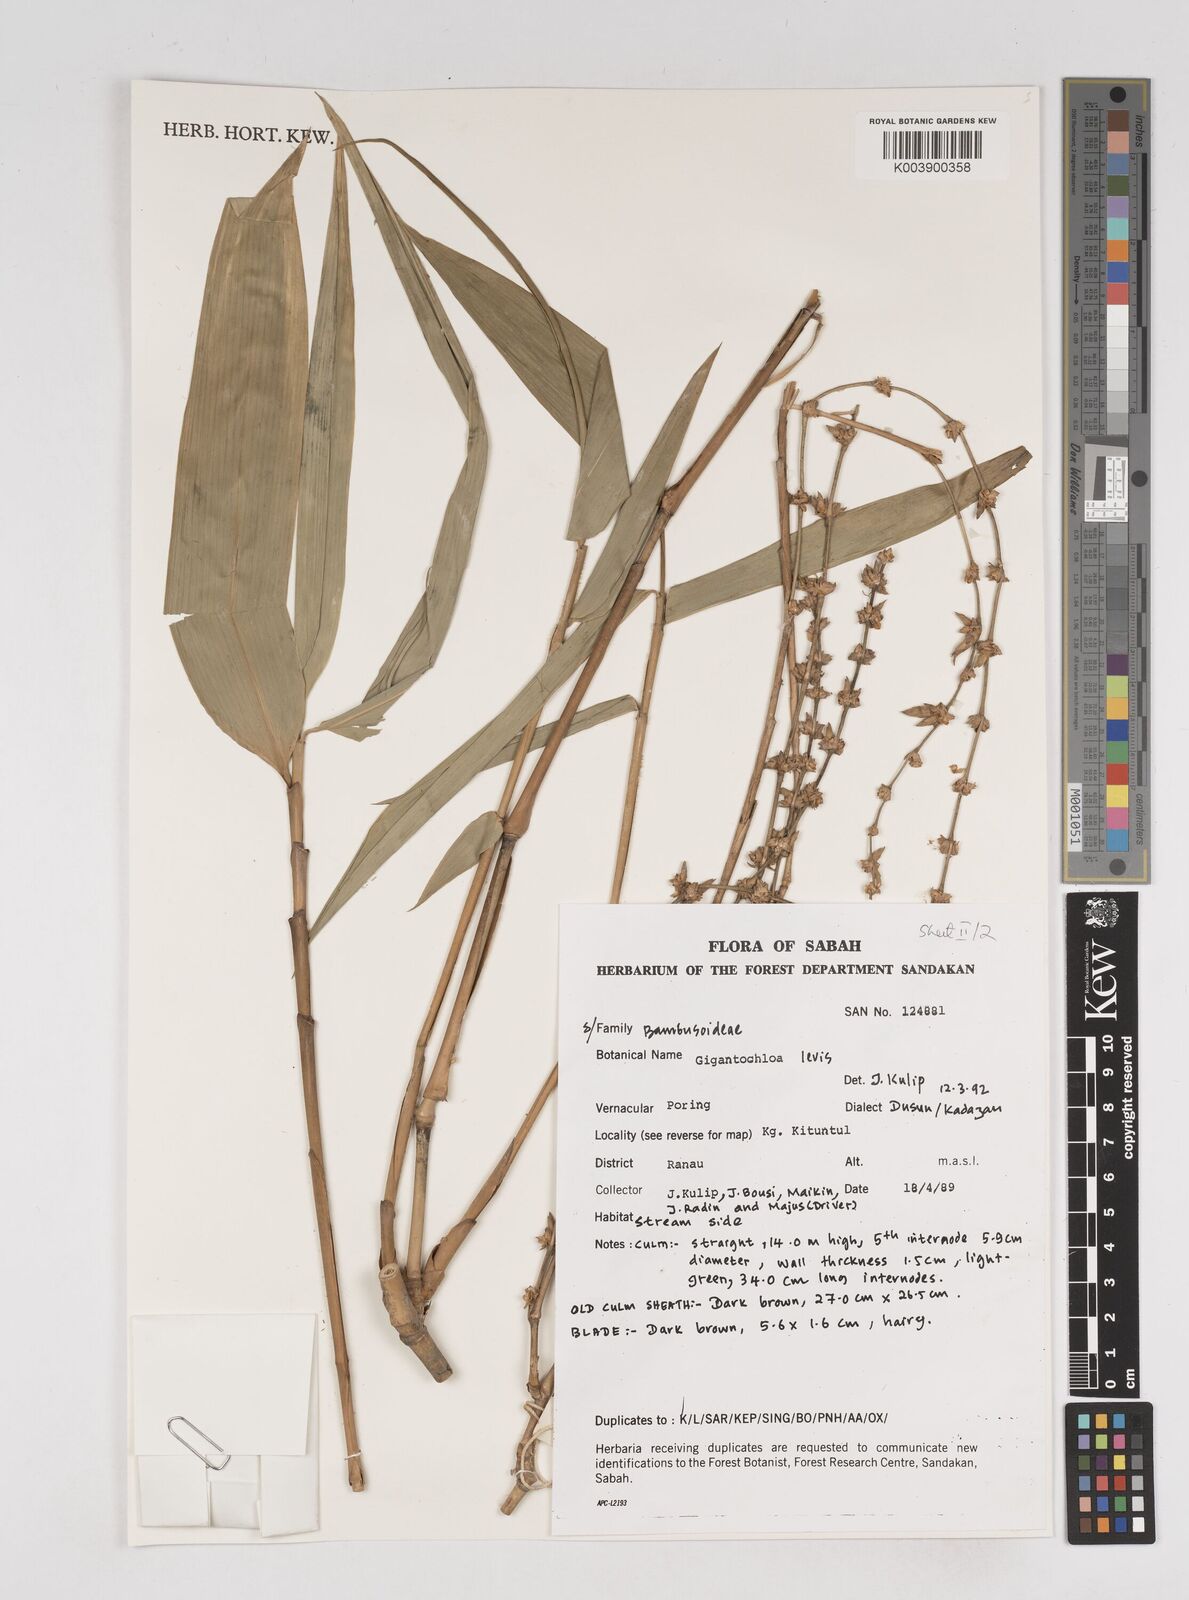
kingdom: Plantae
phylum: Tracheophyta
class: Liliopsida
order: Poales
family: Poaceae
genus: Gigantochloa
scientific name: Gigantochloa levis
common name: Smooth-shoot gigantochloa
